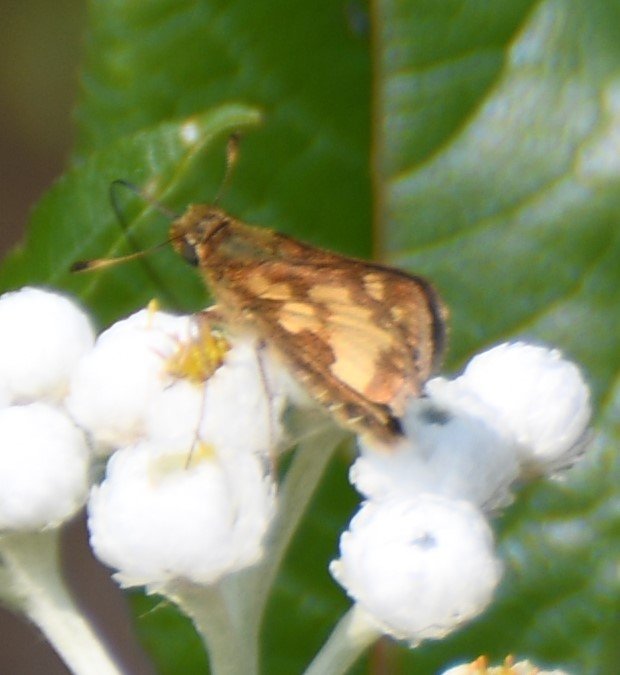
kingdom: Animalia
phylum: Arthropoda
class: Insecta
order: Lepidoptera
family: Hesperiidae
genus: Polites
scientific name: Polites coras
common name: Peck's Skipper
